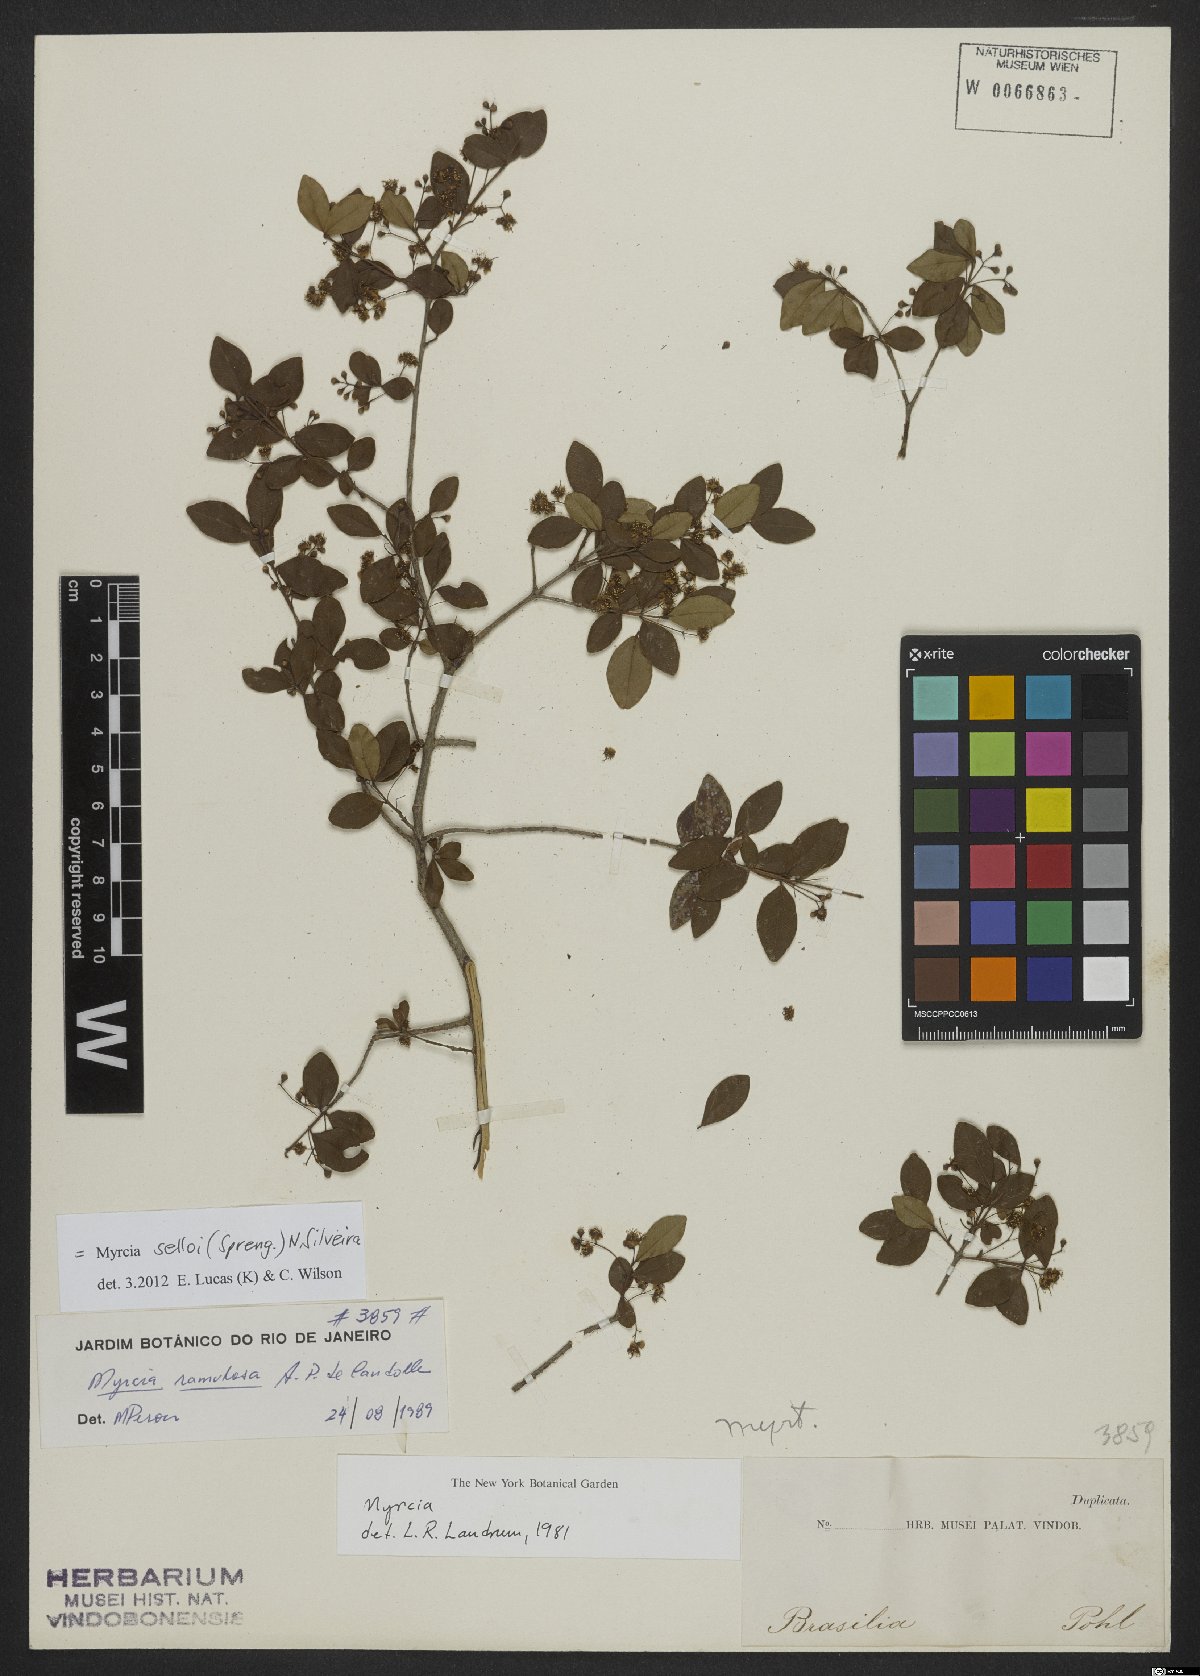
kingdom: Plantae
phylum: Tracheophyta
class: Magnoliopsida
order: Myrtales
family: Myrtaceae
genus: Myrcia
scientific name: Myrcia selloi
